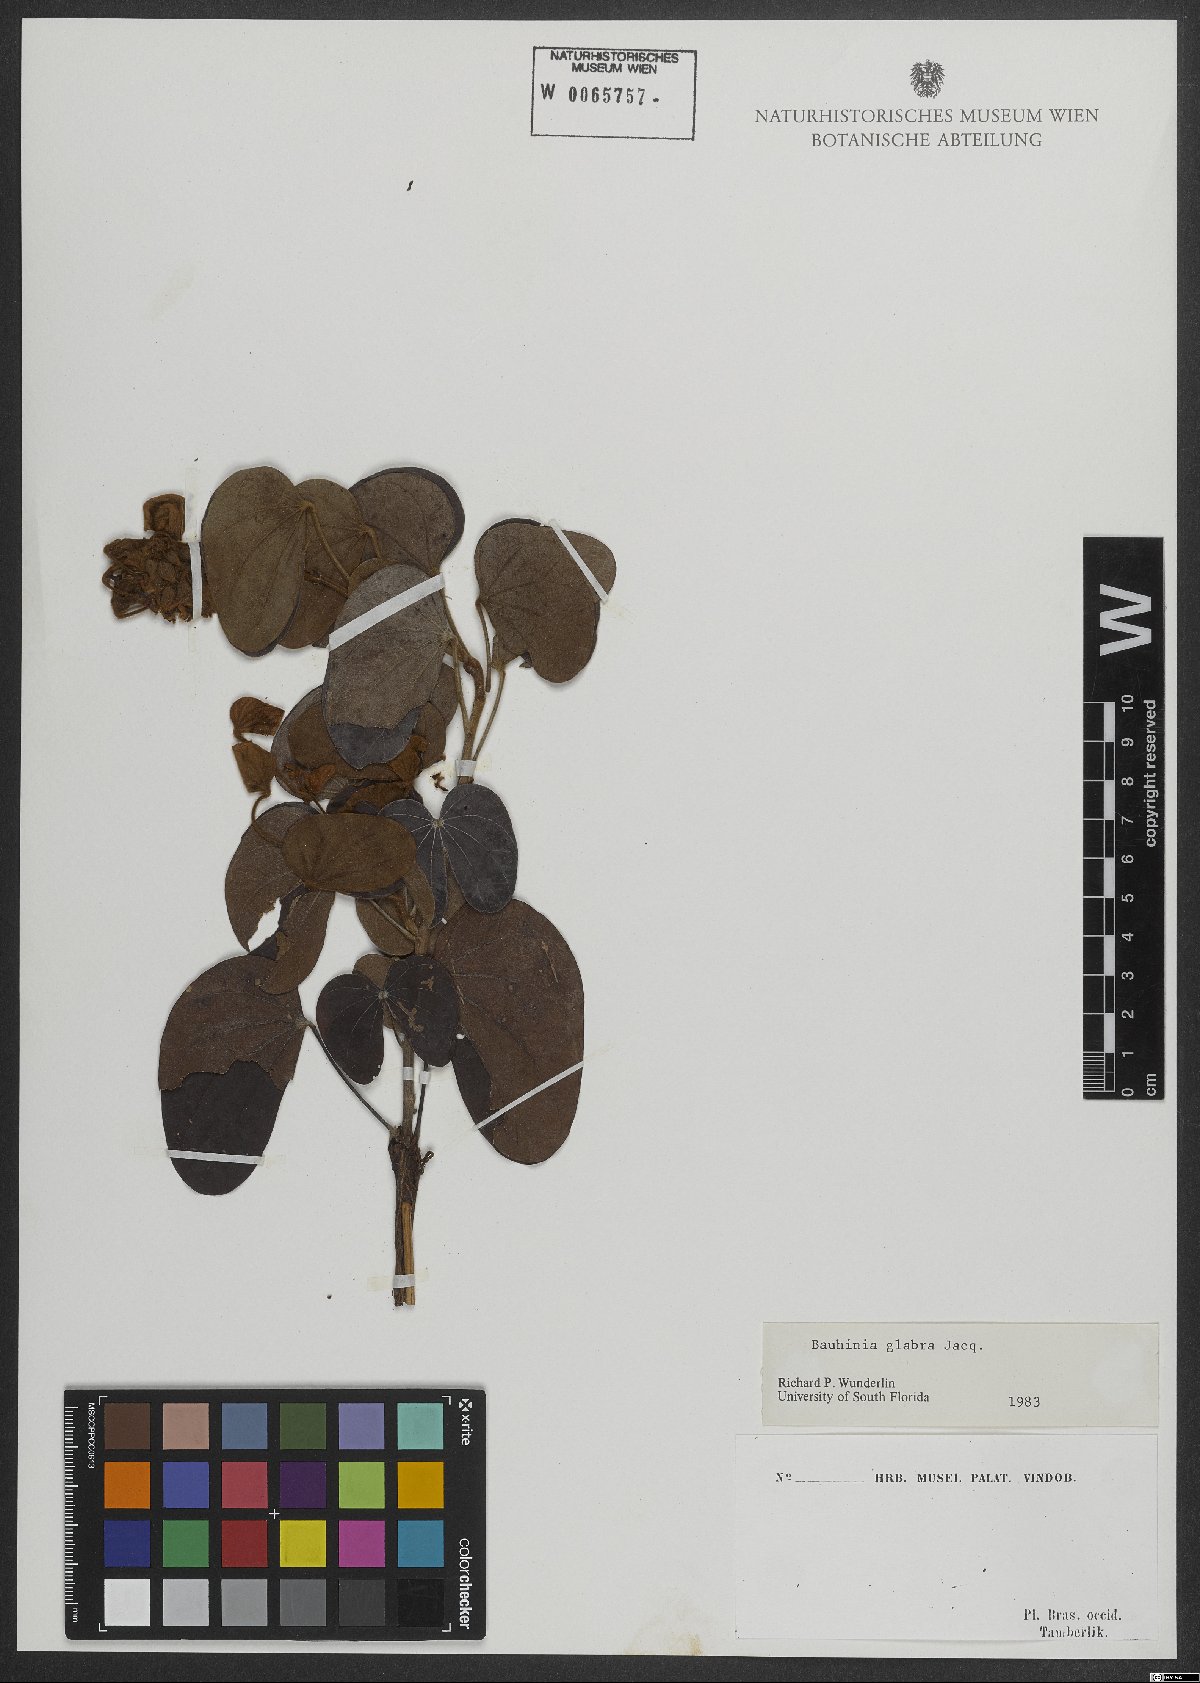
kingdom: Plantae
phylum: Tracheophyta
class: Magnoliopsida
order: Fabales
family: Fabaceae
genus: Schnella
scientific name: Schnella glabra
